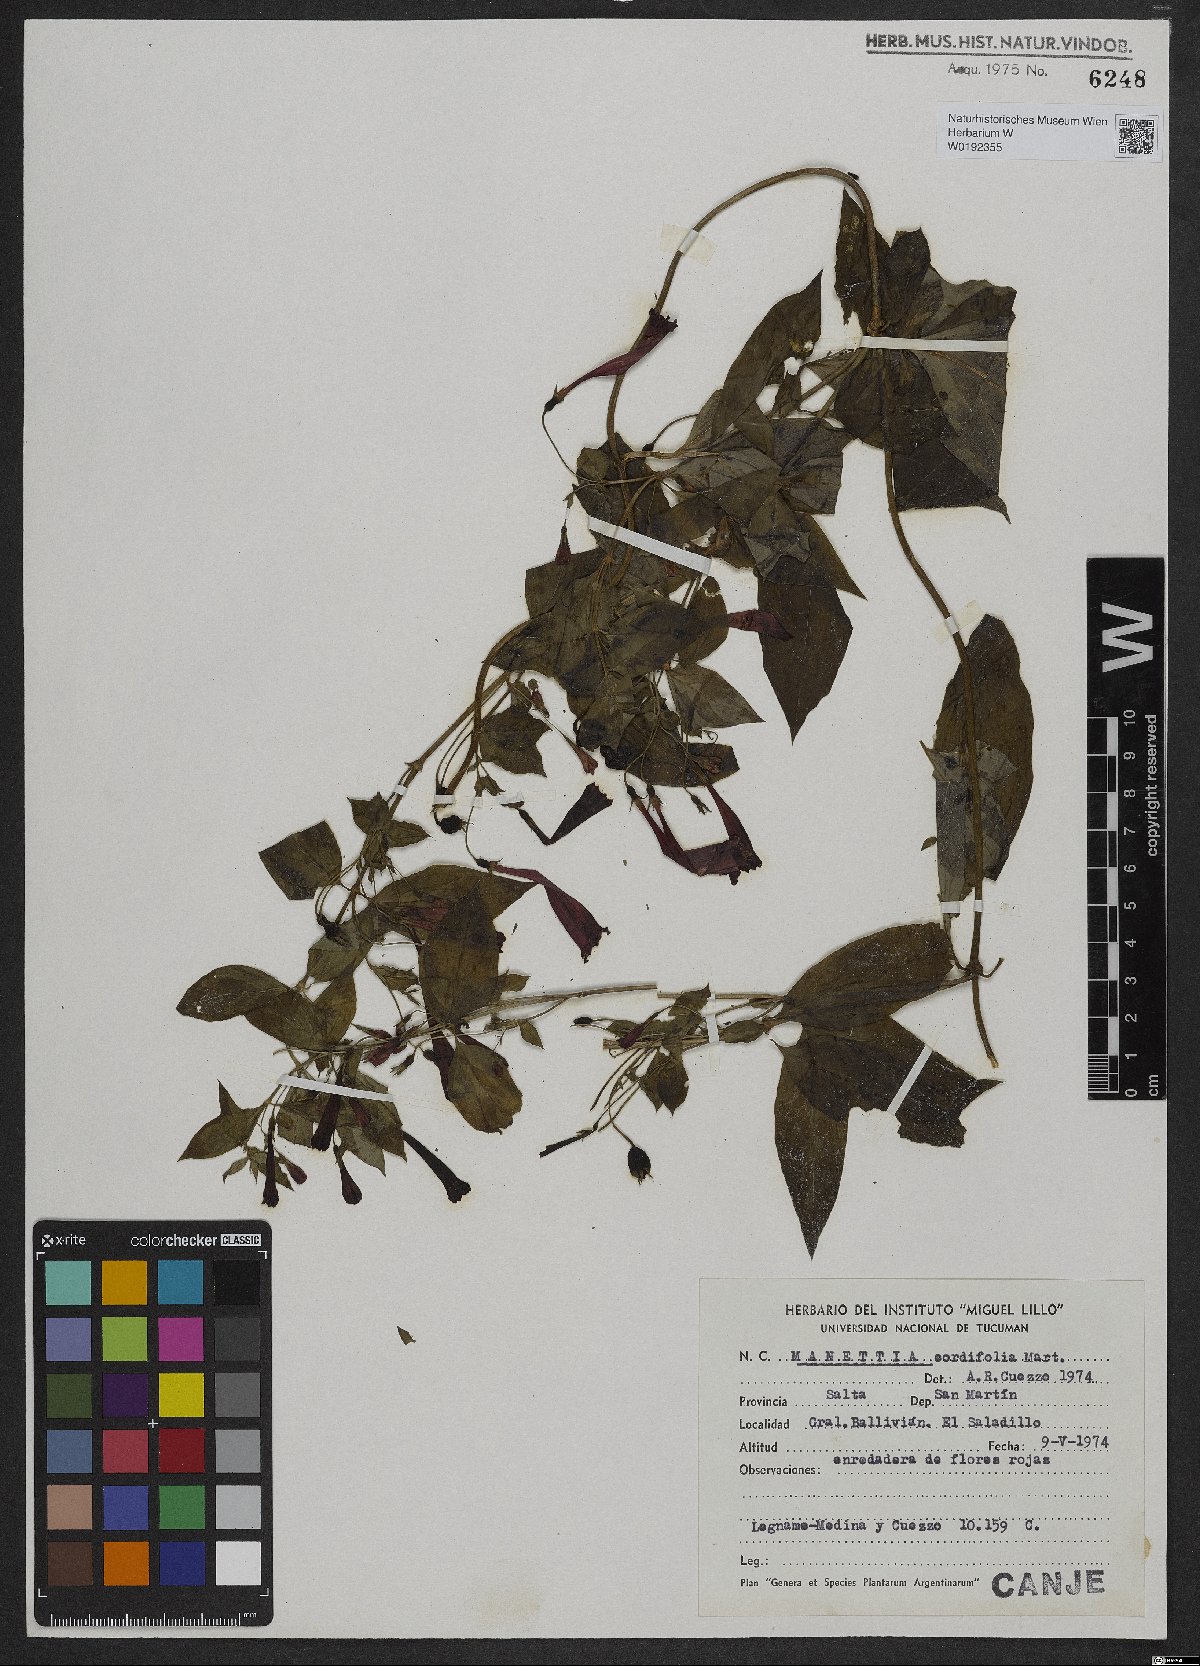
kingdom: Plantae
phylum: Tracheophyta
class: Magnoliopsida
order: Gentianales
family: Rubiaceae
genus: Manettia
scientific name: Manettia cordifolia
